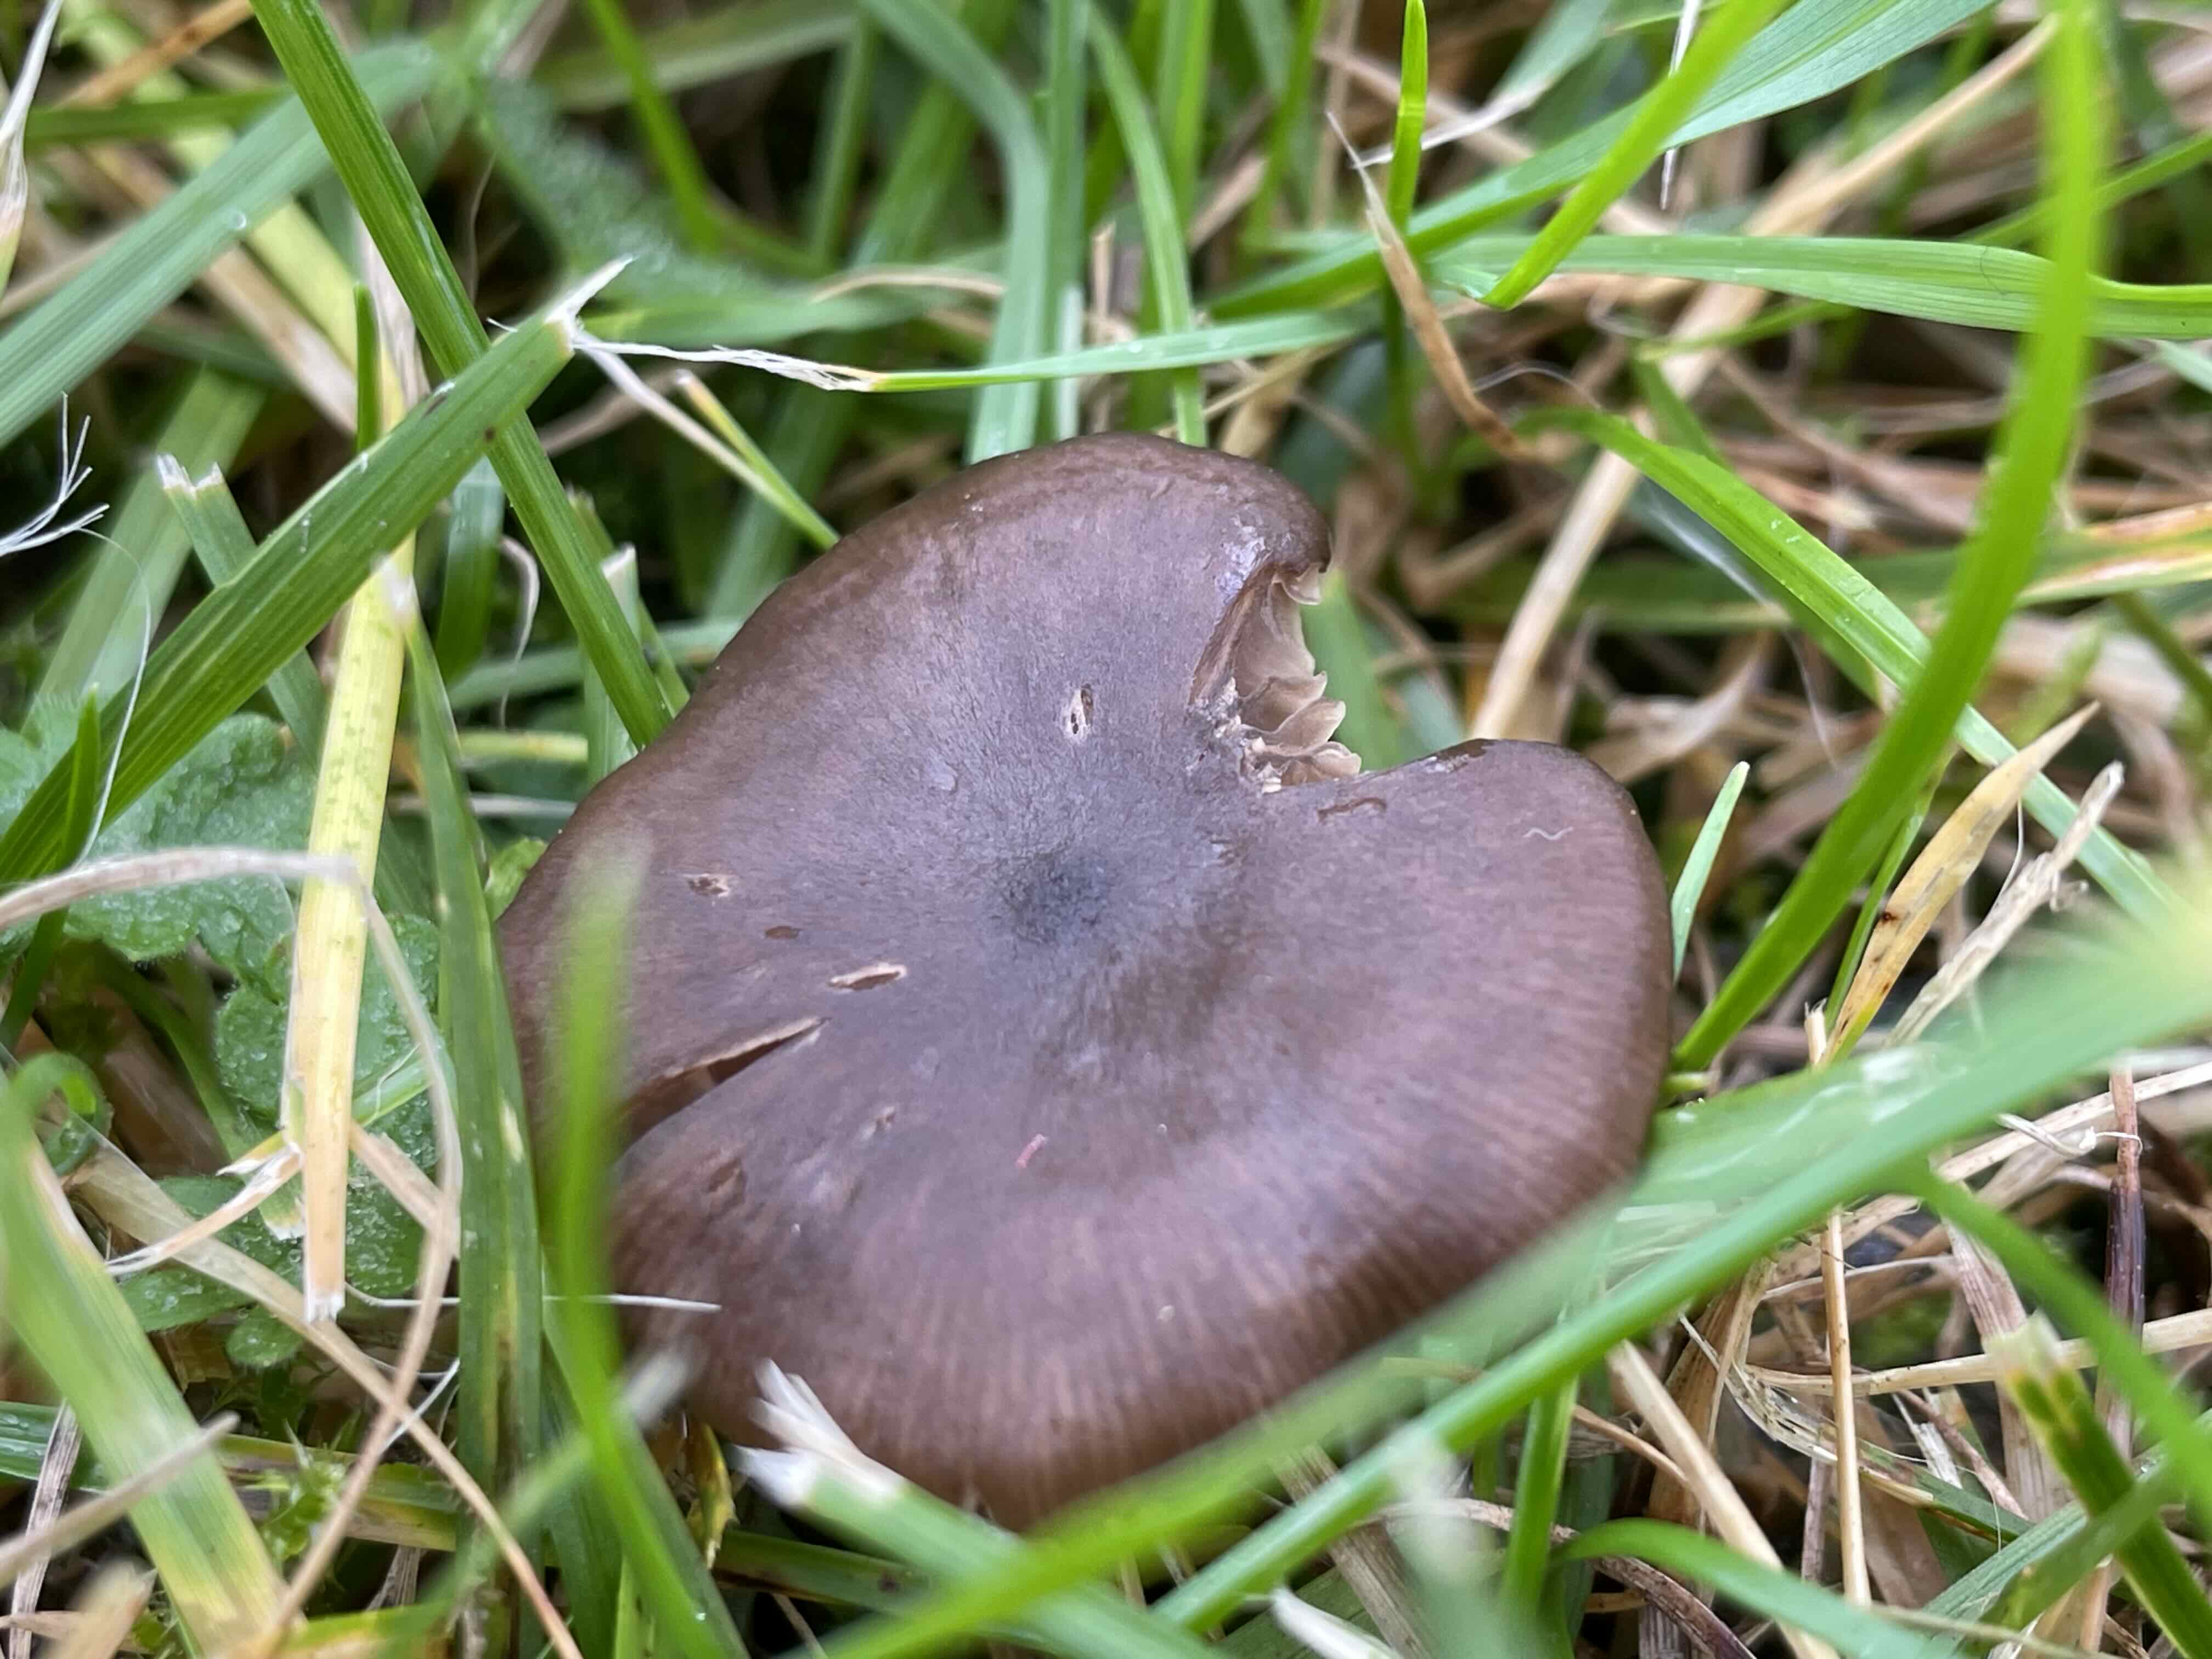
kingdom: Fungi
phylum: Basidiomycota
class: Agaricomycetes
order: Agaricales
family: Entolomataceae
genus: Entoloma
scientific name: Entoloma sericeum
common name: silkeglinsende rødblad
